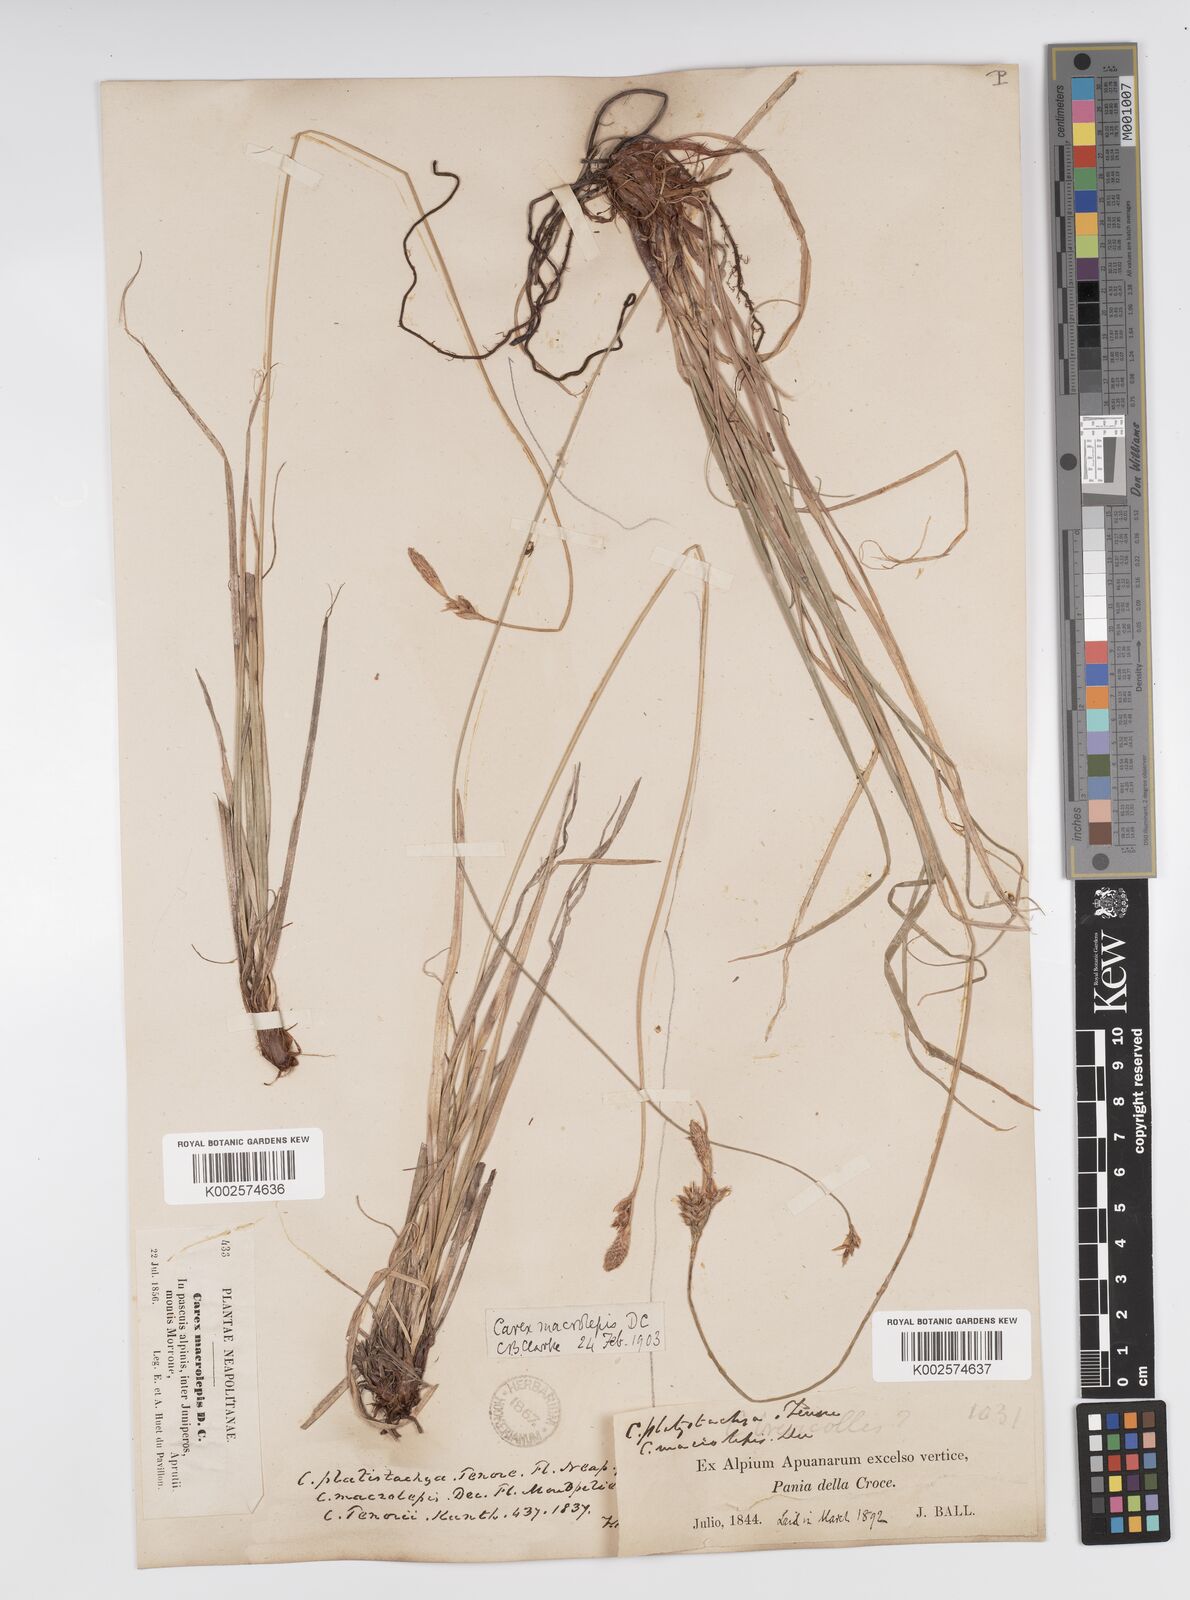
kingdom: Plantae
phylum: Tracheophyta
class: Liliopsida
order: Poales
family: Cyperaceae
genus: Carex
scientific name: Carex macrolepis
